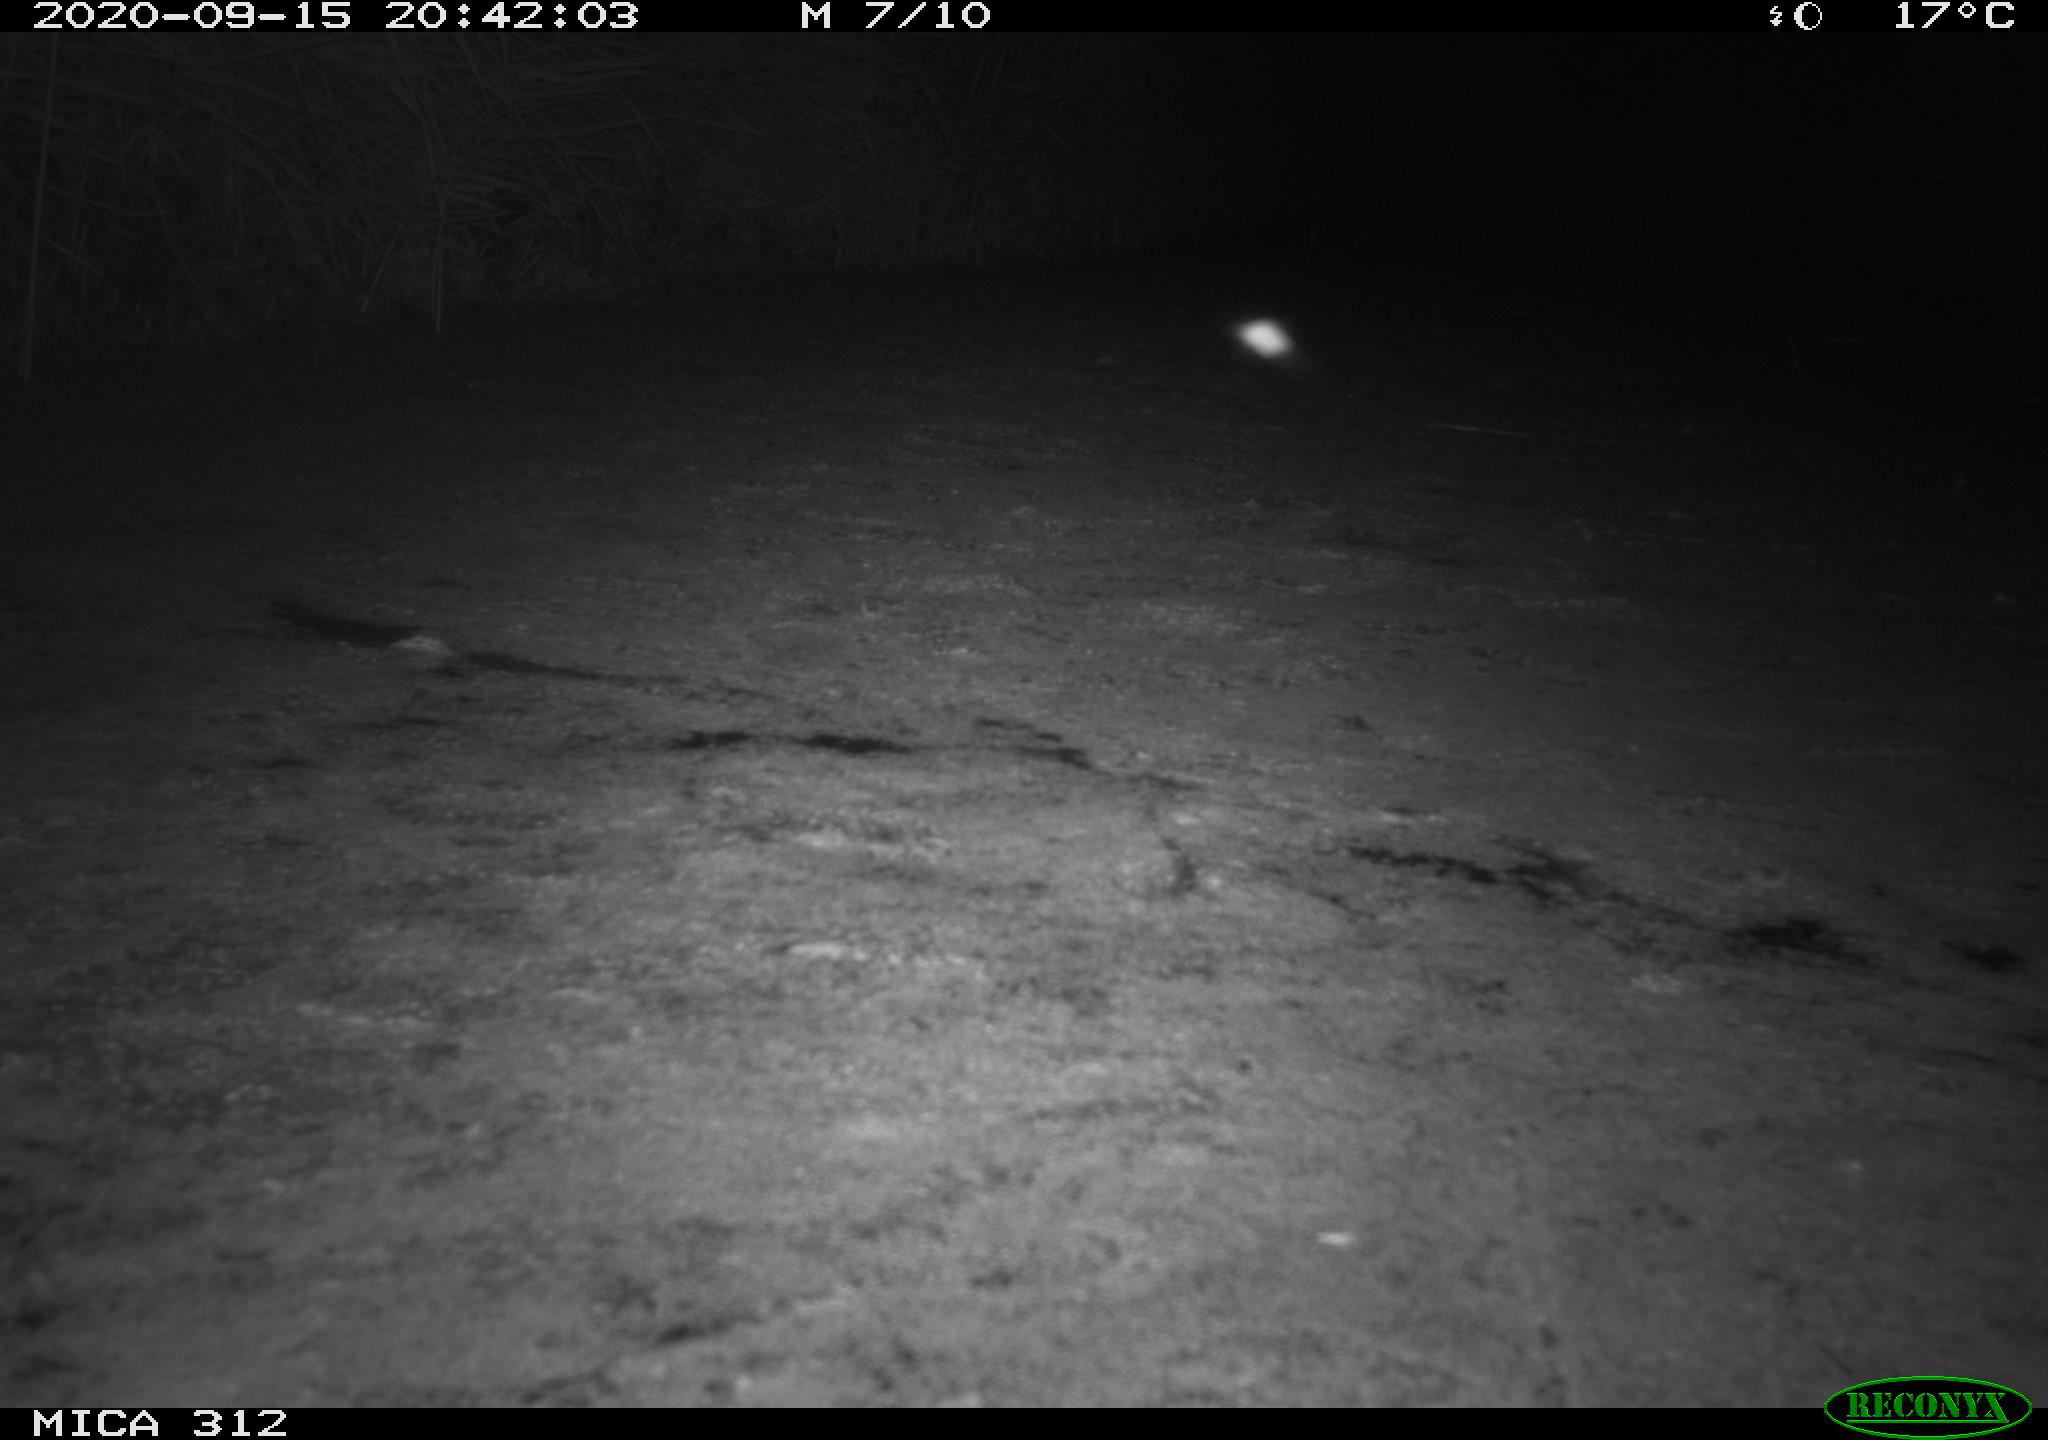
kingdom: Animalia
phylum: Chordata
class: Mammalia
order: Rodentia
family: Muridae
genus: Rattus
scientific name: Rattus norvegicus
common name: Brown rat
